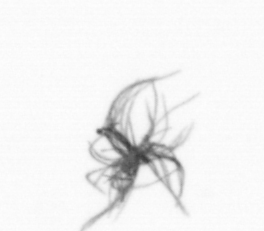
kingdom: Bacteria
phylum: Cyanobacteria
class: Cyanobacteriia
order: Cyanobacteriales
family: Microcoleaceae
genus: Trichodesmium
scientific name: Trichodesmium
